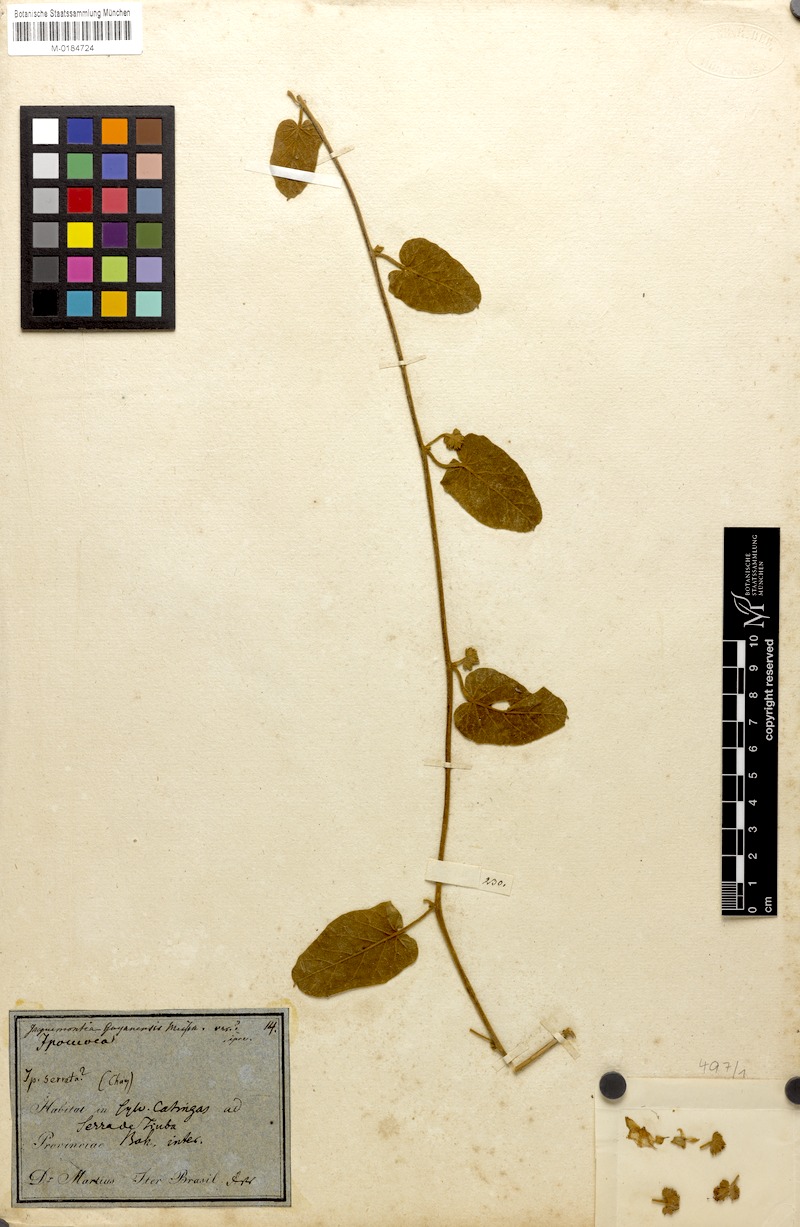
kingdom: Plantae
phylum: Tracheophyta
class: Magnoliopsida
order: Solanales
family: Convolvulaceae
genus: Jacquemontia
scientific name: Jacquemontia guyanensis
